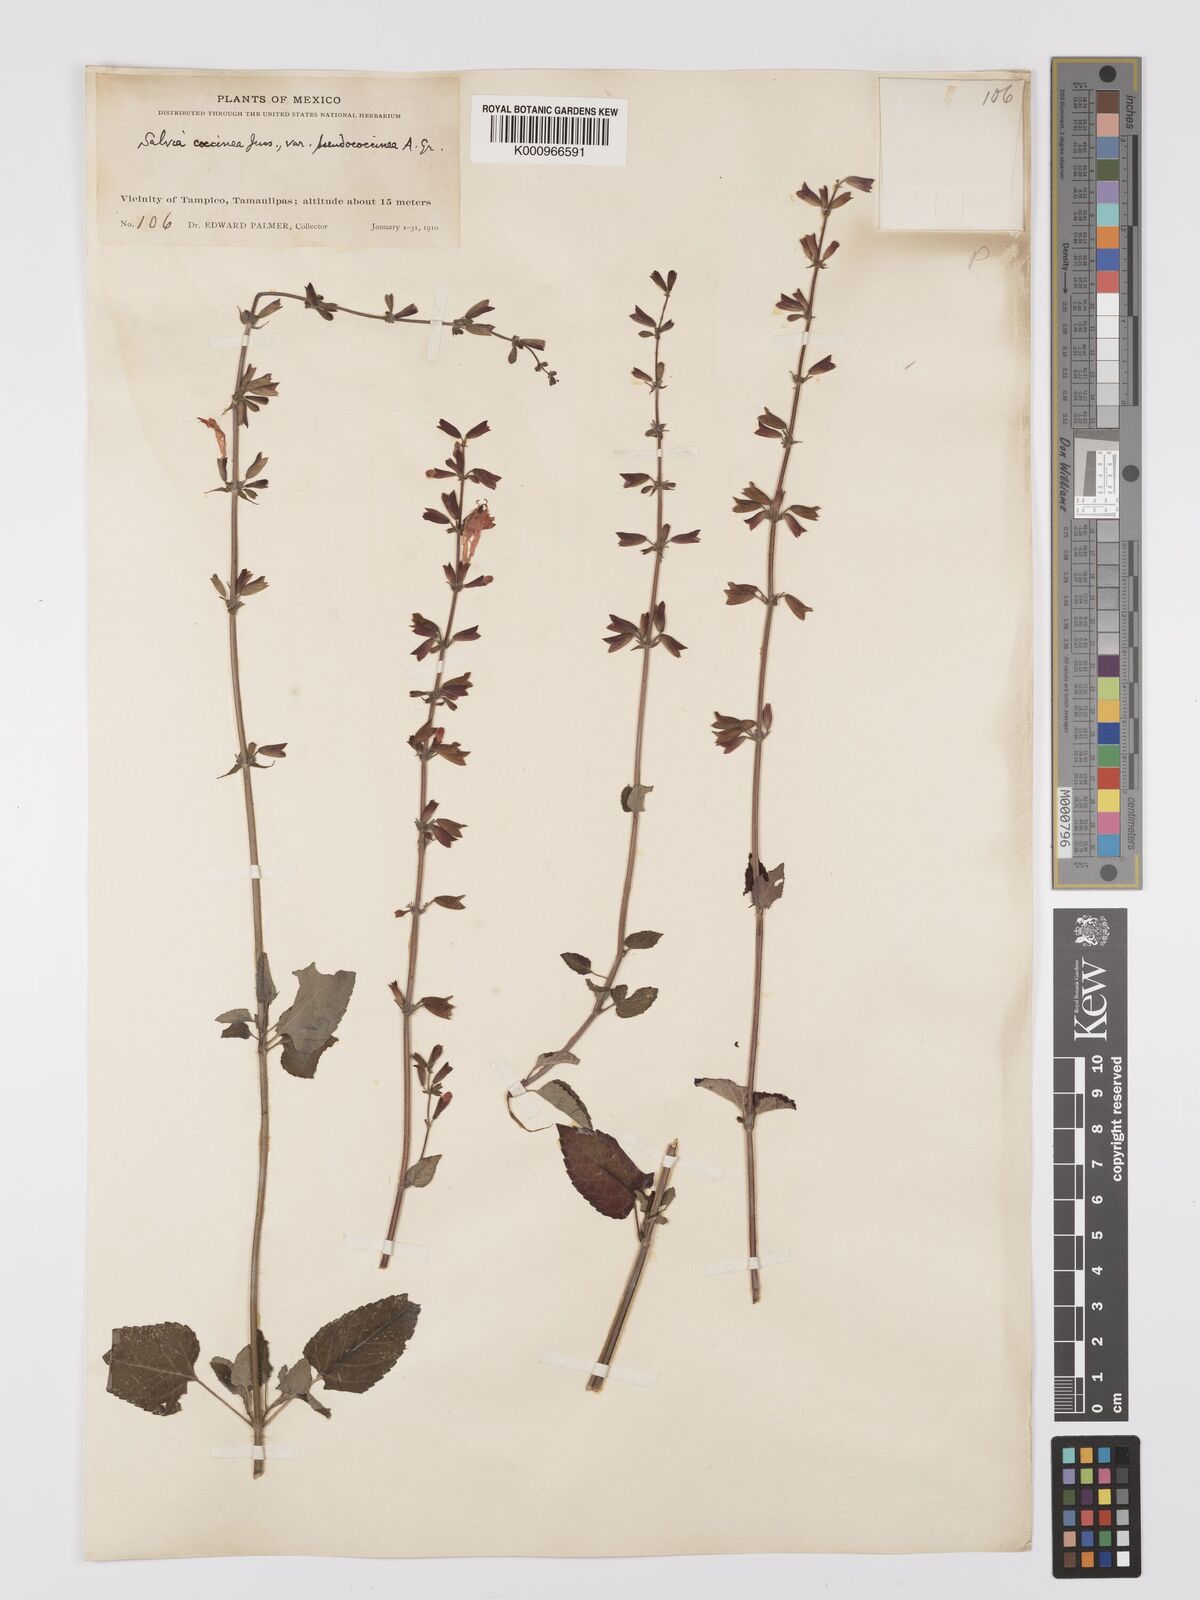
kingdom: Plantae
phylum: Tracheophyta
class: Magnoliopsida
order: Lamiales
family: Lamiaceae
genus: Salvia
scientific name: Salvia
